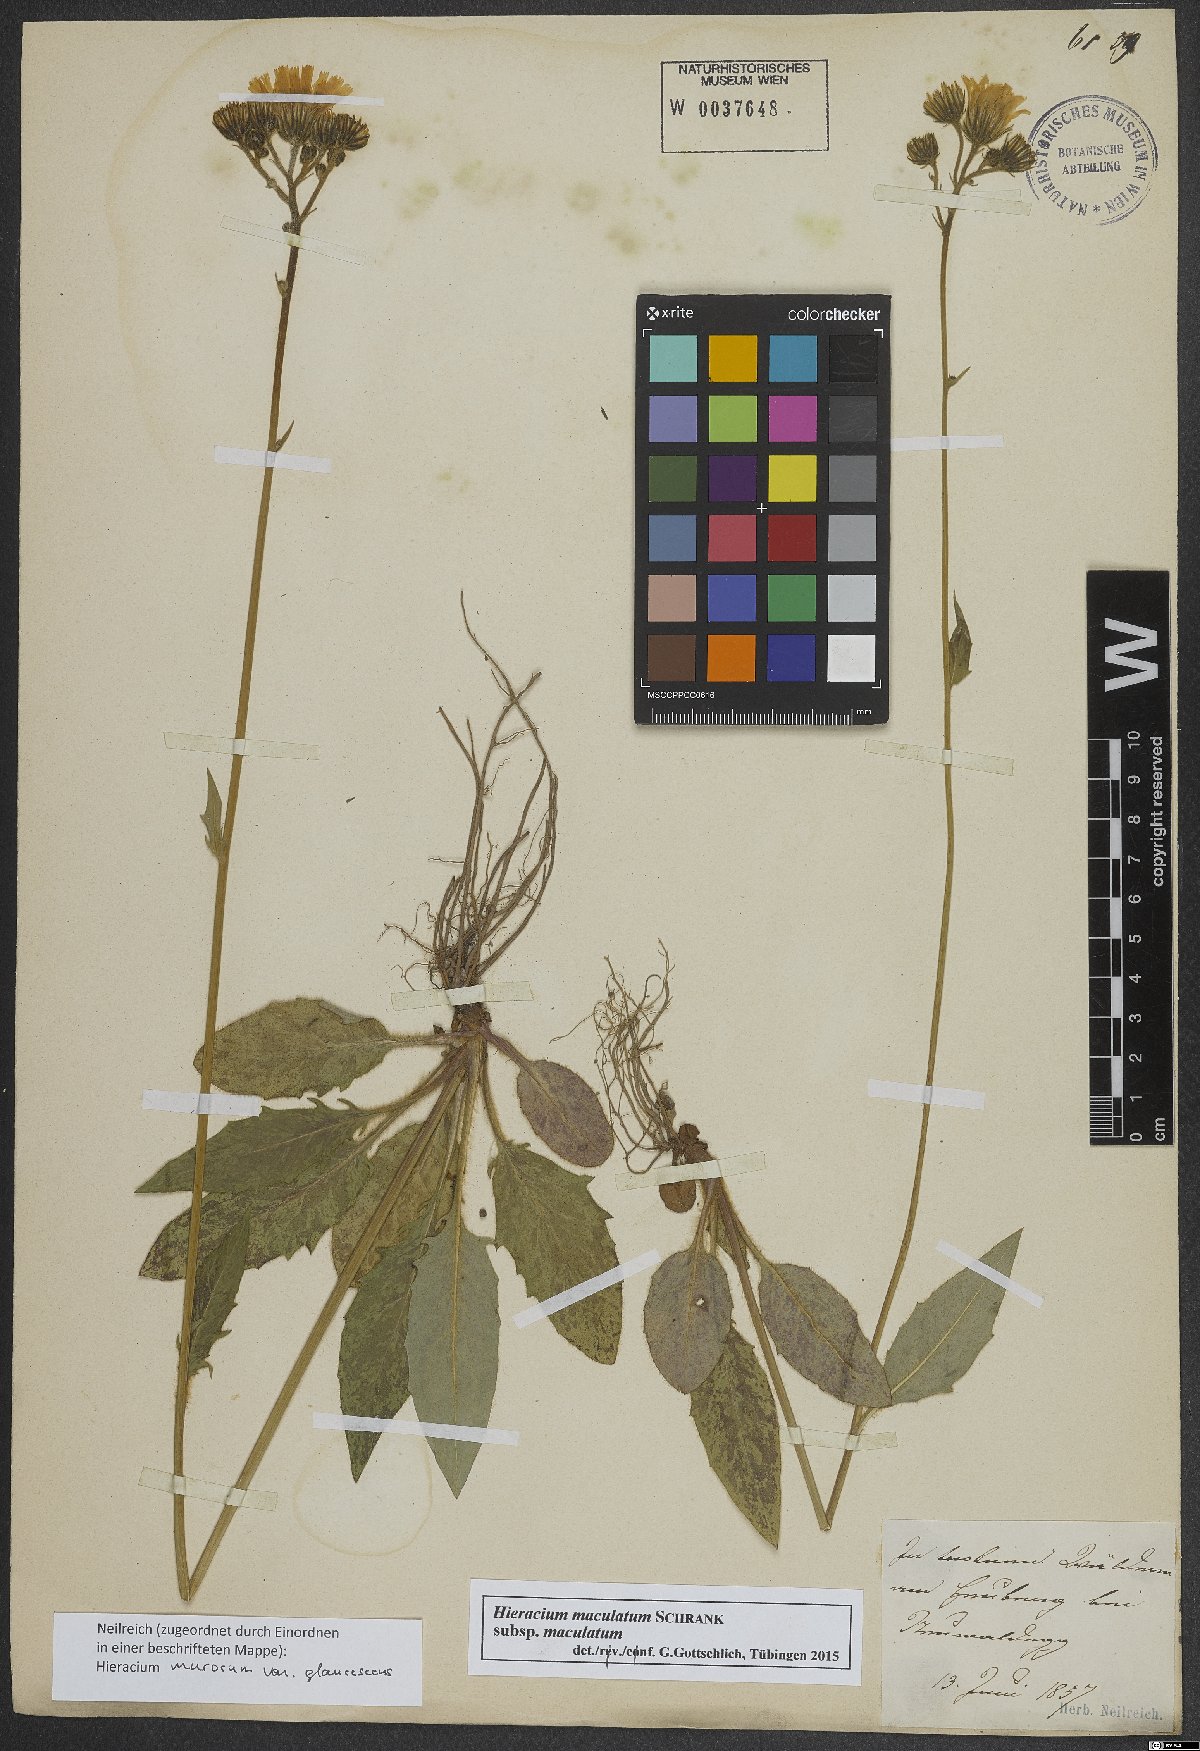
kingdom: Plantae
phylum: Tracheophyta
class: Magnoliopsida
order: Asterales
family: Asteraceae
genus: Hieracium
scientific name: Hieracium maculatum
